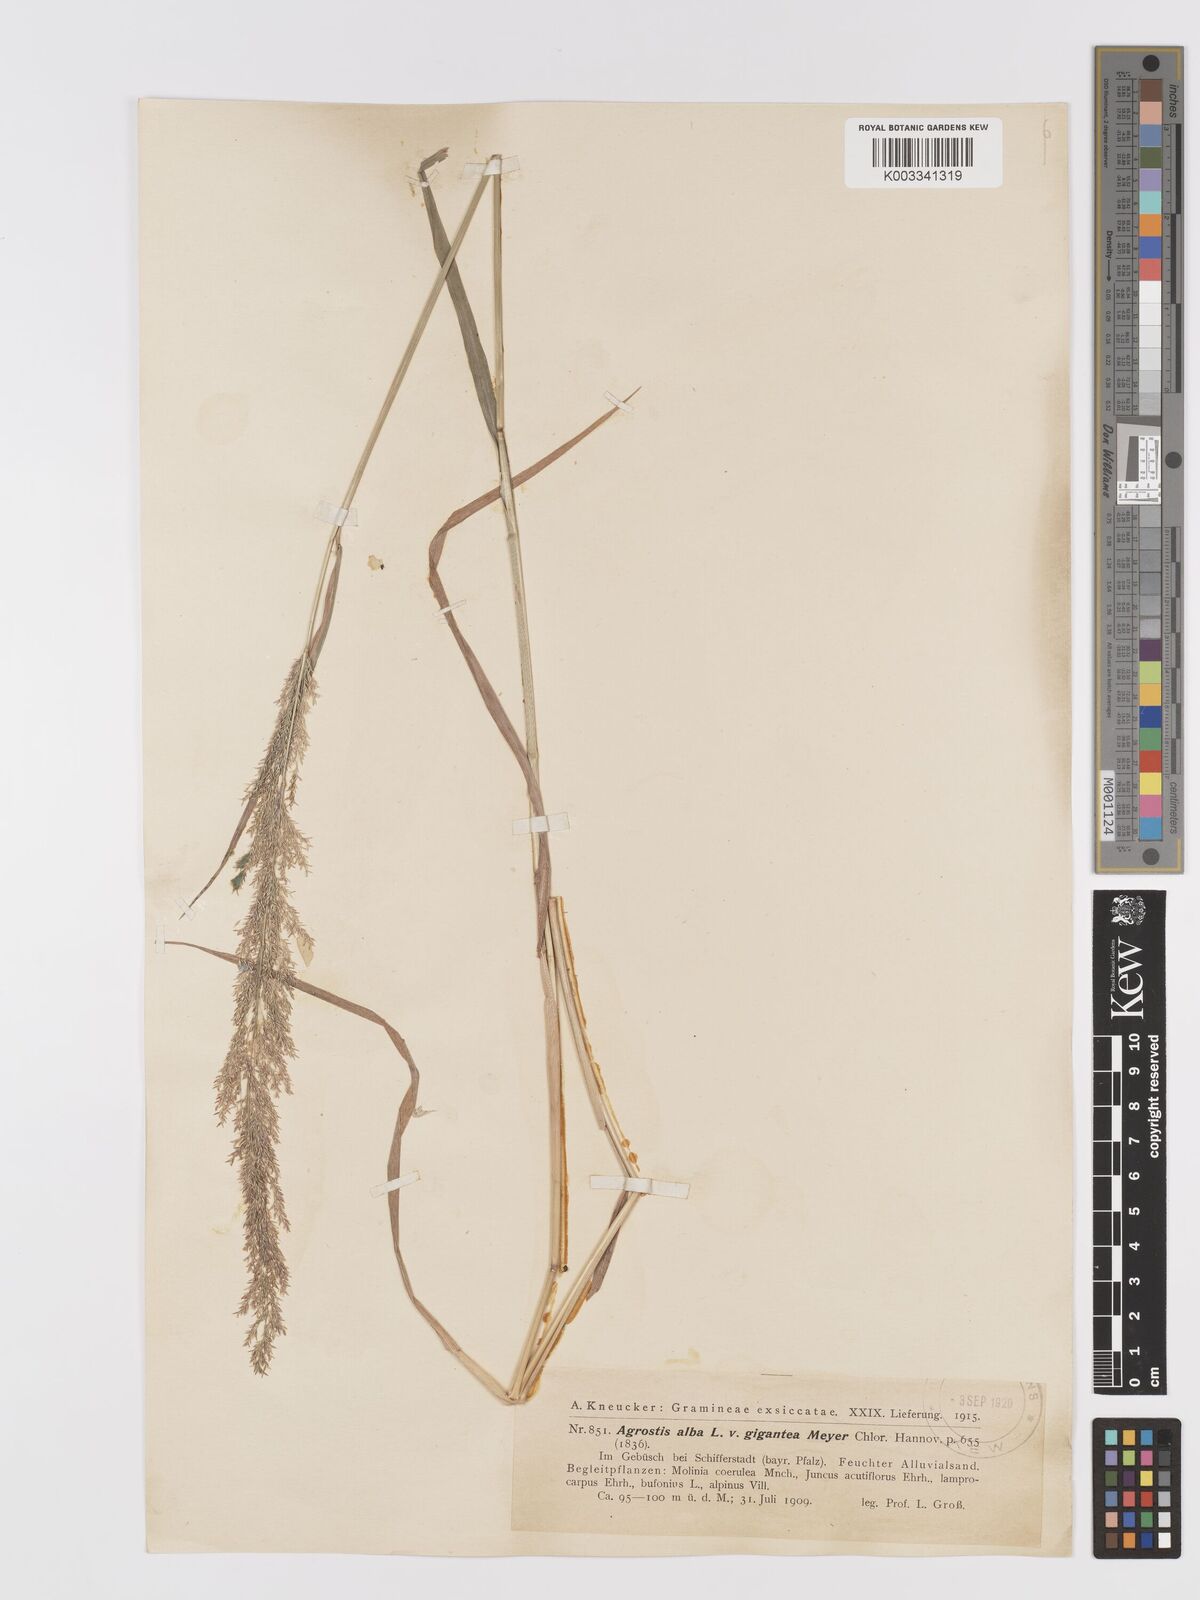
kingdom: Plantae
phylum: Tracheophyta
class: Liliopsida
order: Poales
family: Poaceae
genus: Agrostis
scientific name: Agrostis gigantea
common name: Black bent
